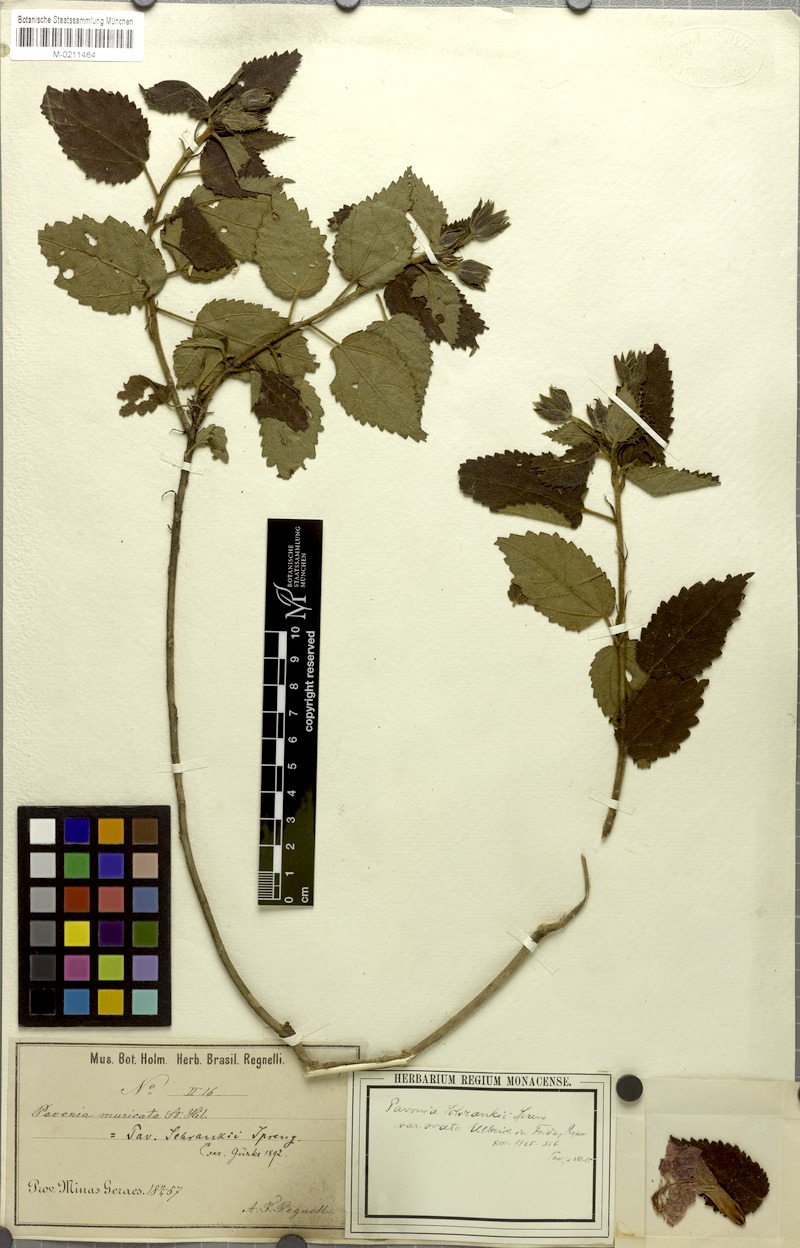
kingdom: Plantae
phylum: Tracheophyta
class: Magnoliopsida
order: Malvales
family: Malvaceae
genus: Pavonia
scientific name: Pavonia schrankii
